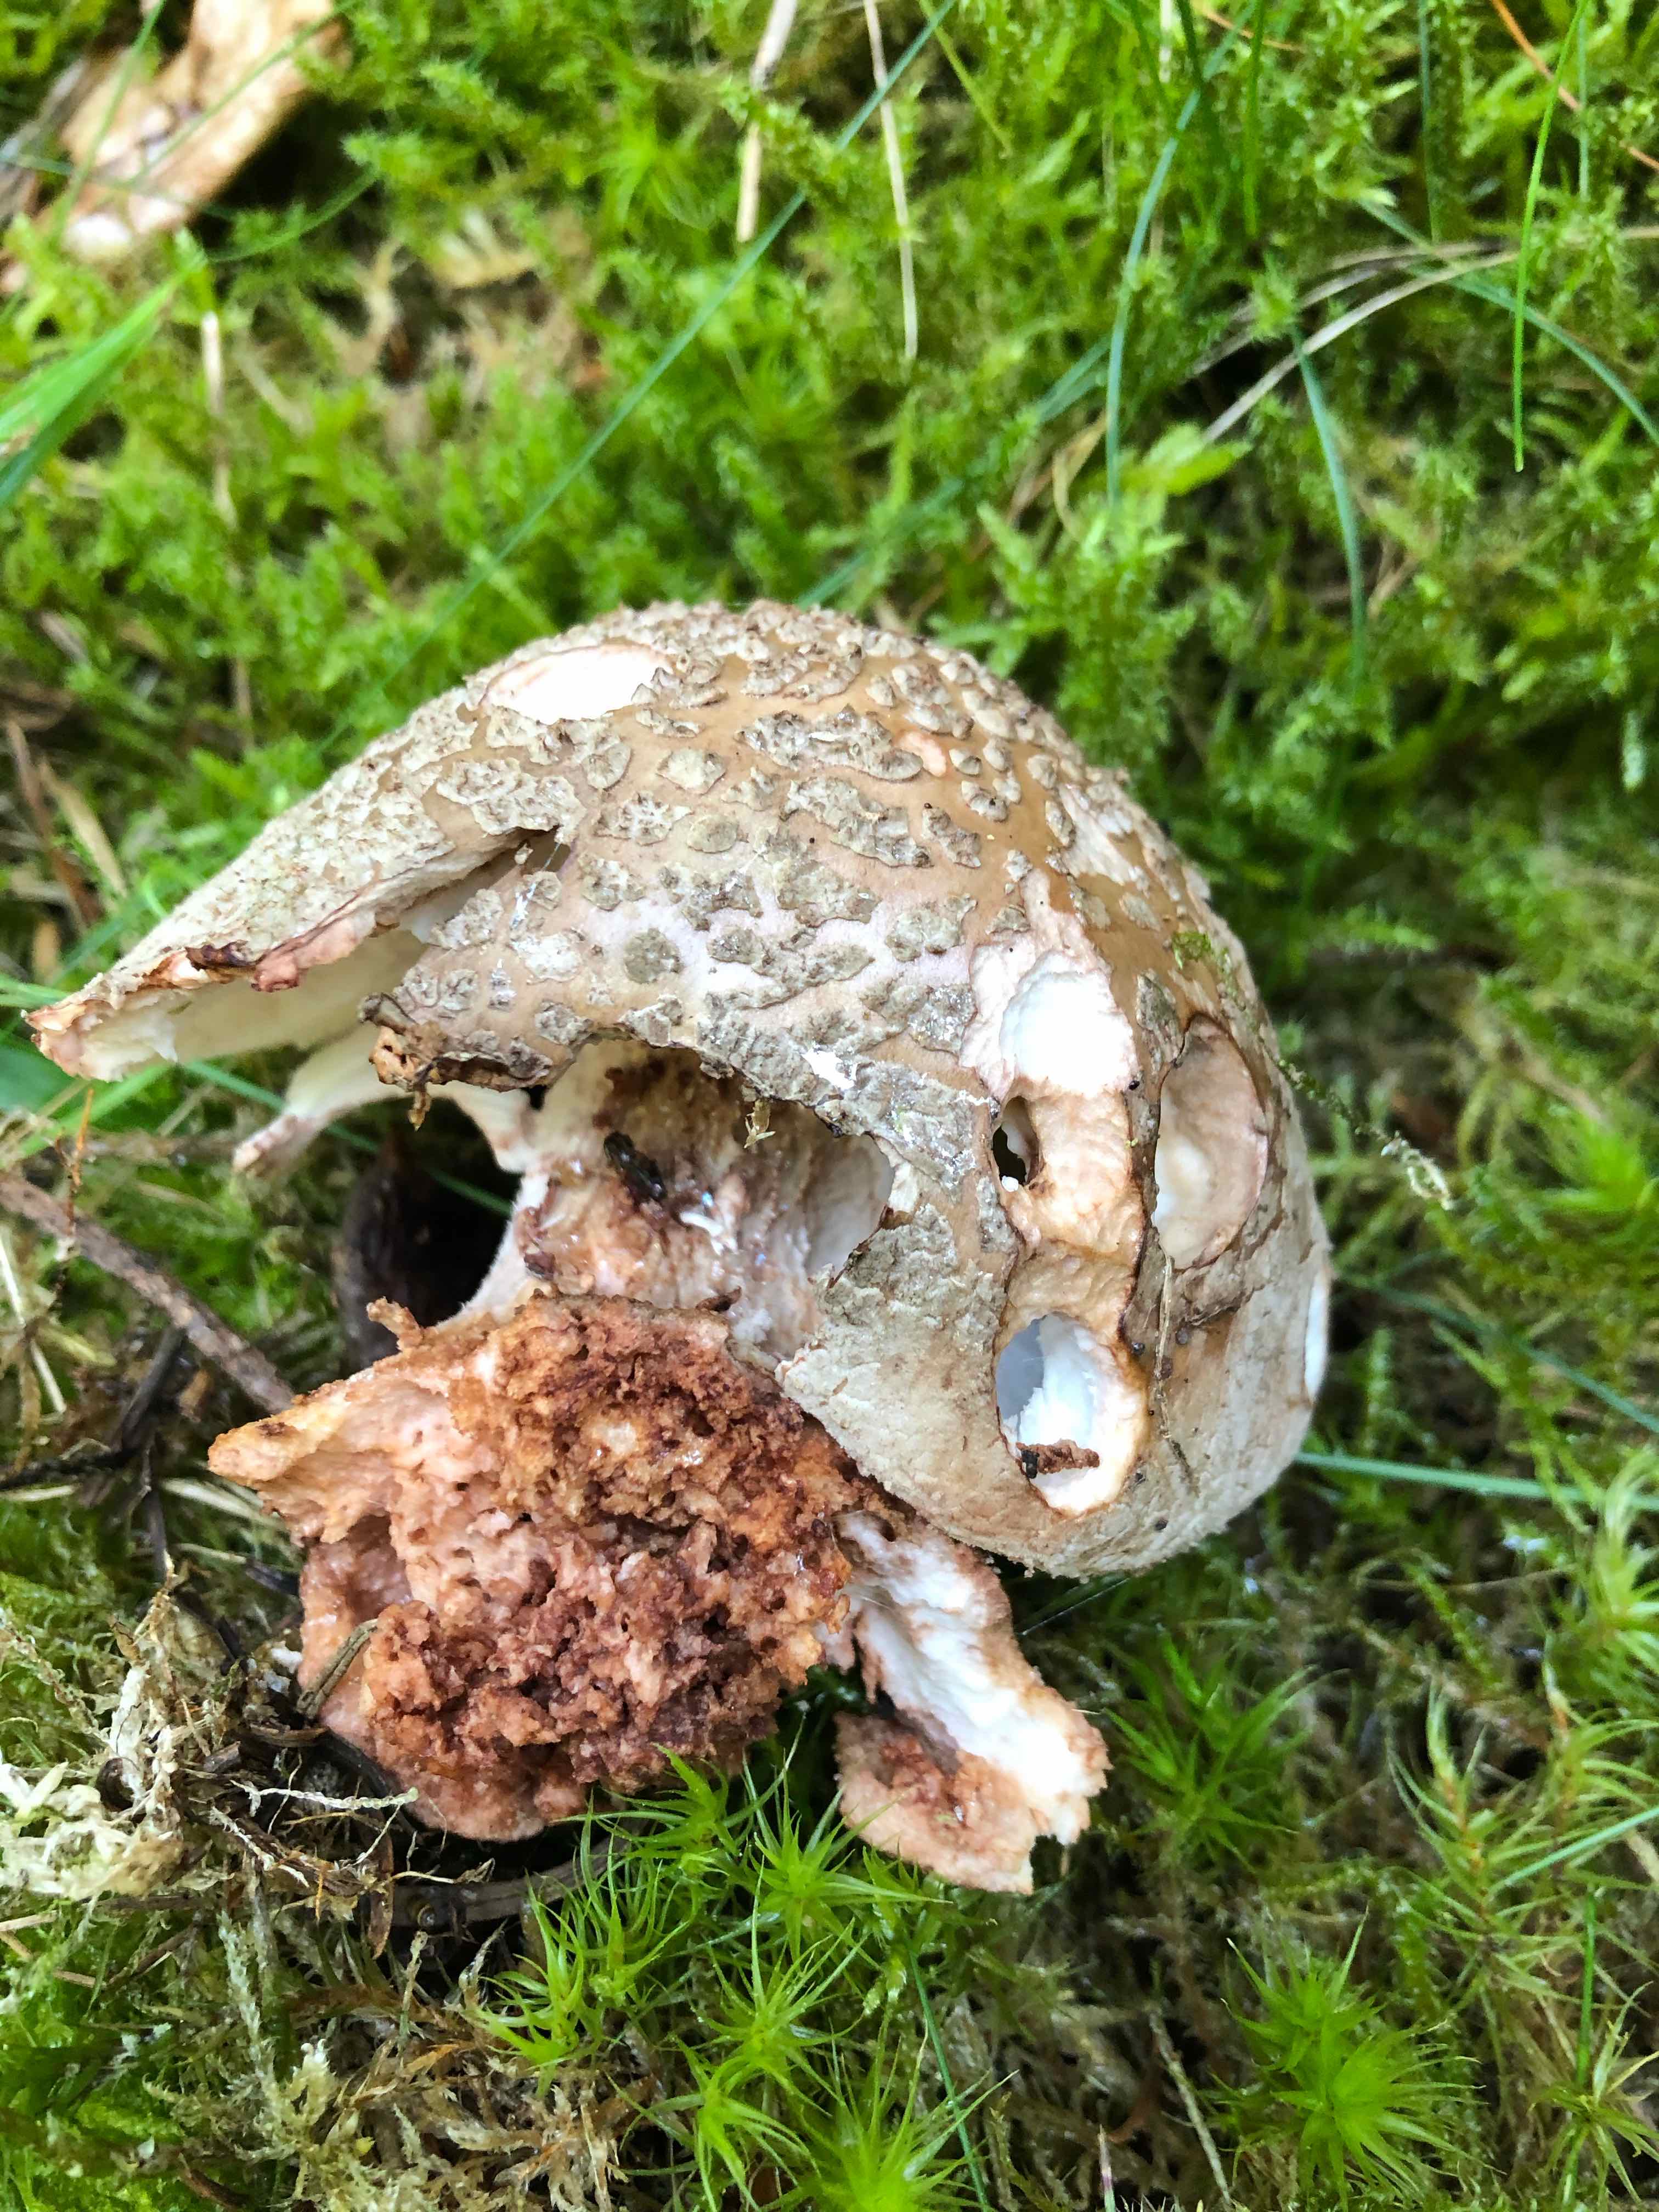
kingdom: Fungi
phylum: Basidiomycota
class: Agaricomycetes
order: Agaricales
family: Amanitaceae
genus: Amanita
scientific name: Amanita rubescens
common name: rødmende fluesvamp
